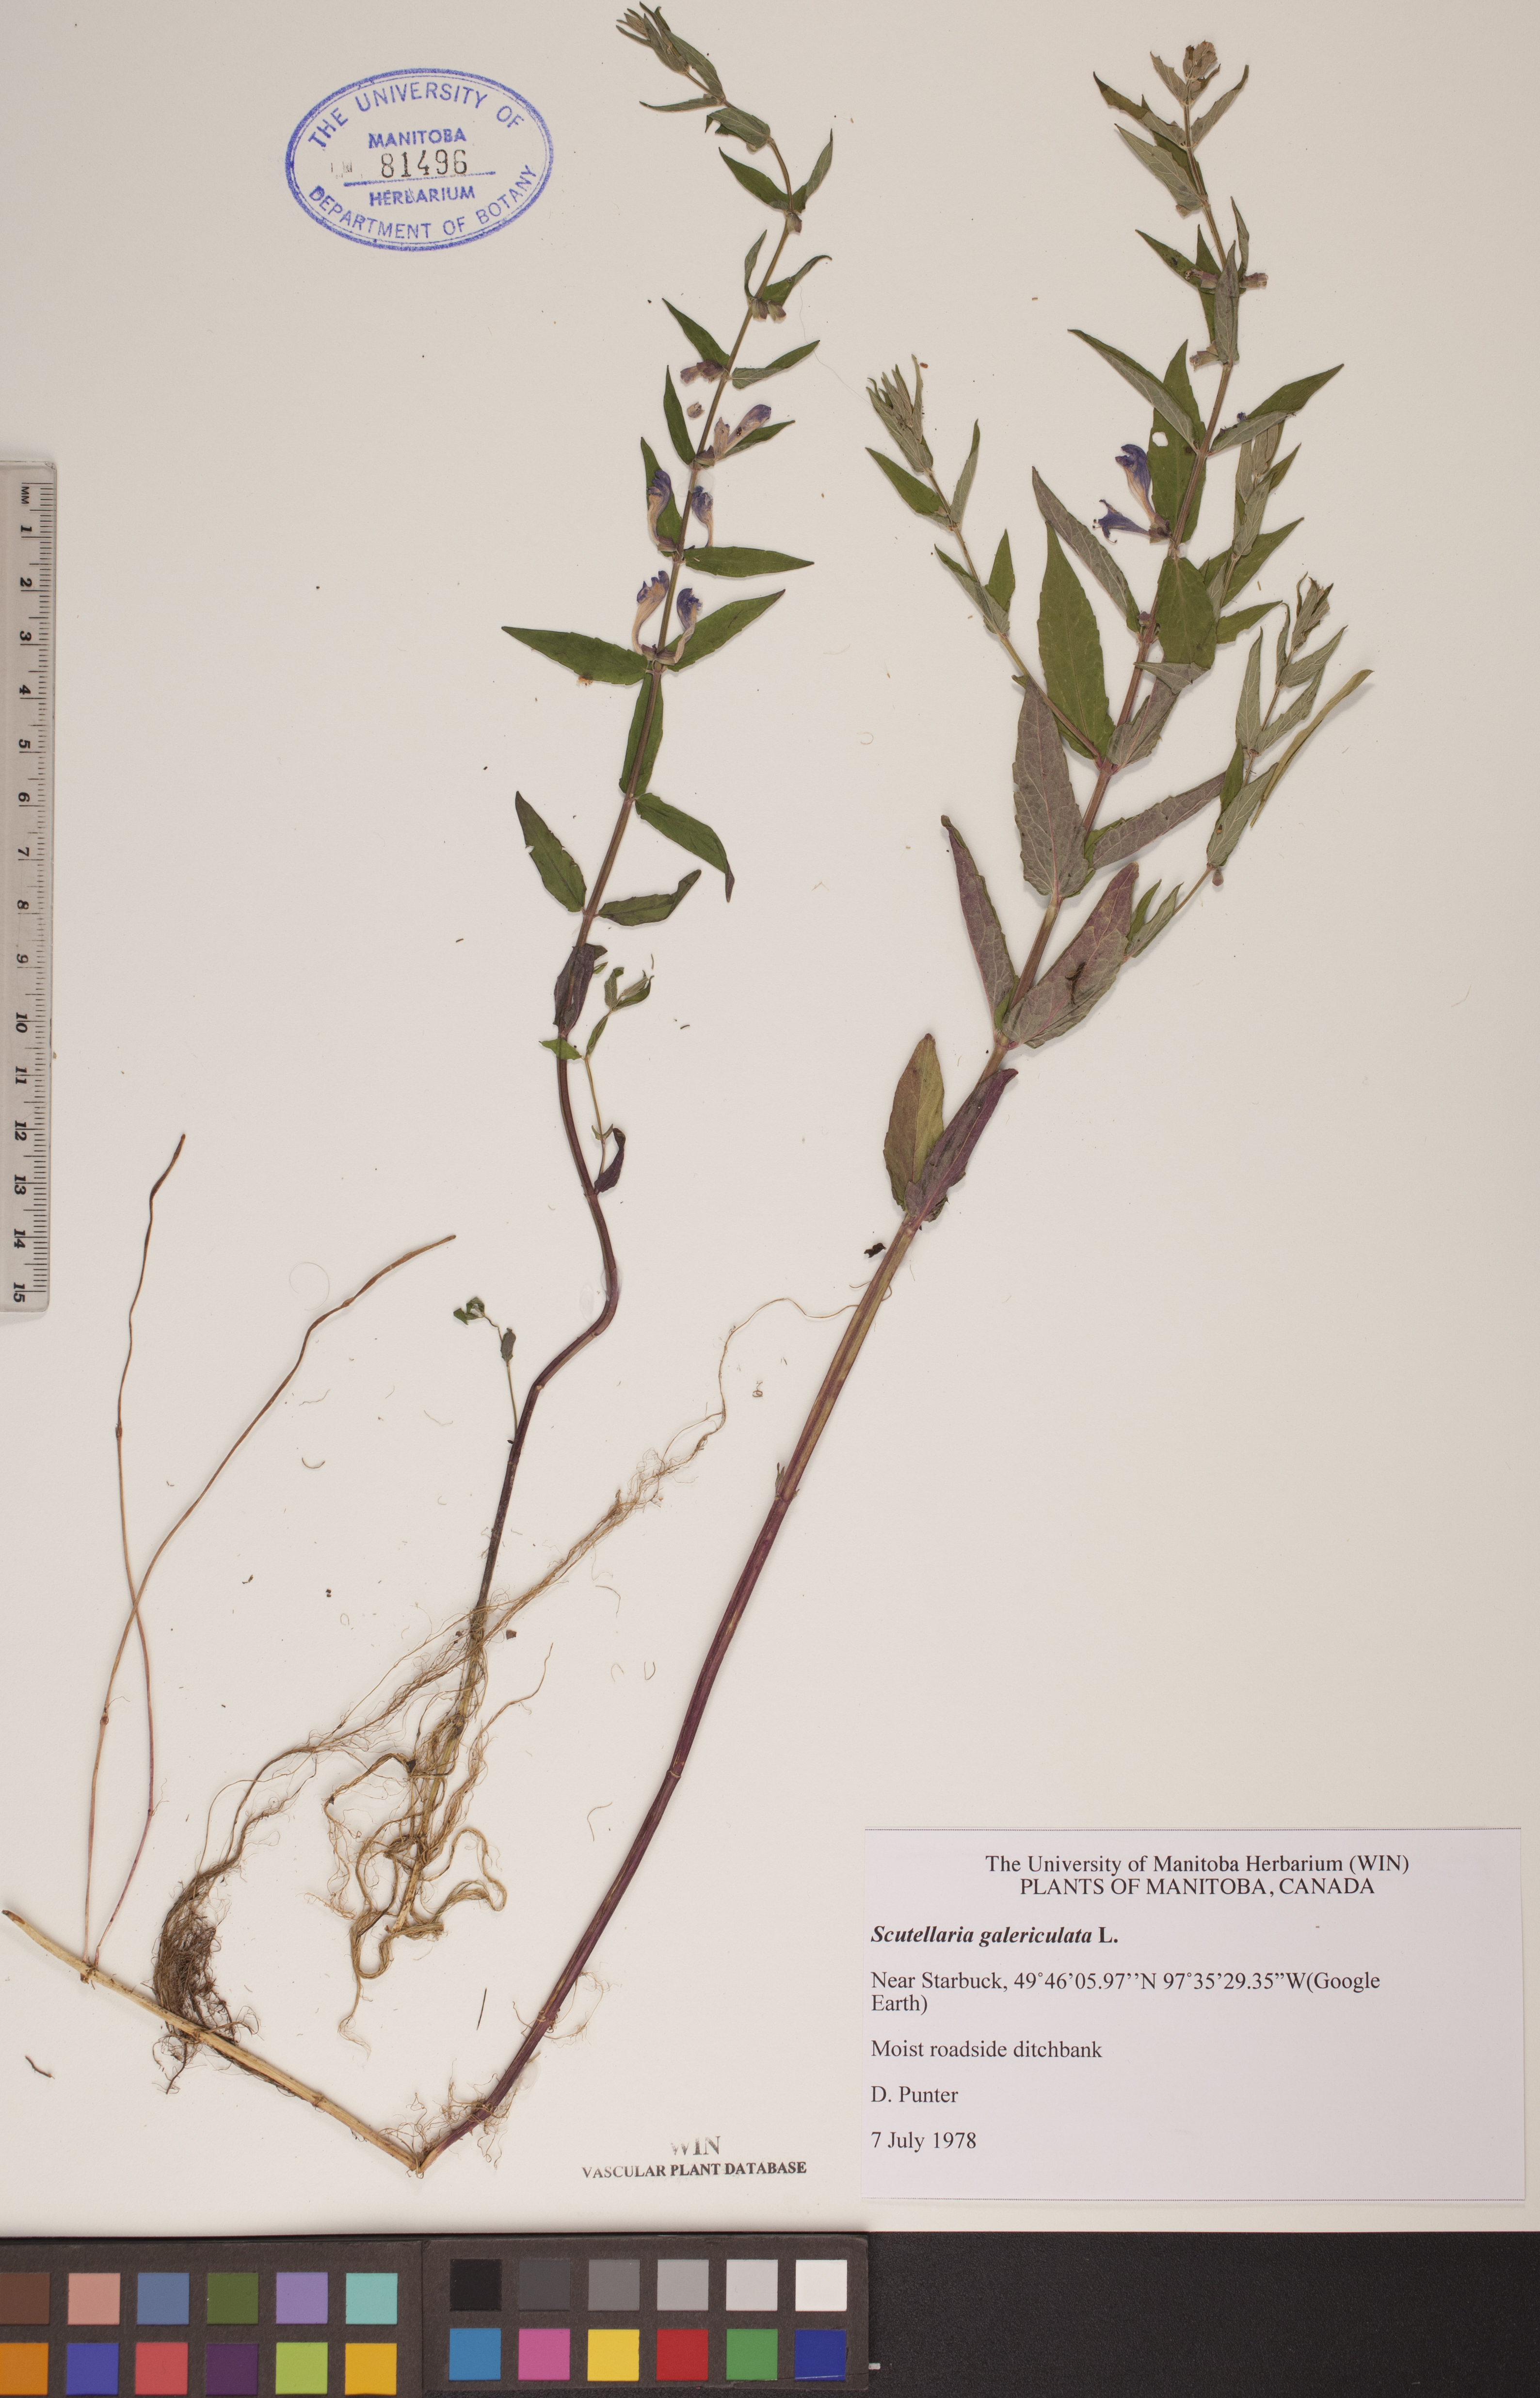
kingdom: Plantae
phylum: Tracheophyta
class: Magnoliopsida
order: Lamiales
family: Lamiaceae
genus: Scutellaria
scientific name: Scutellaria galericulata
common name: Skullcap
